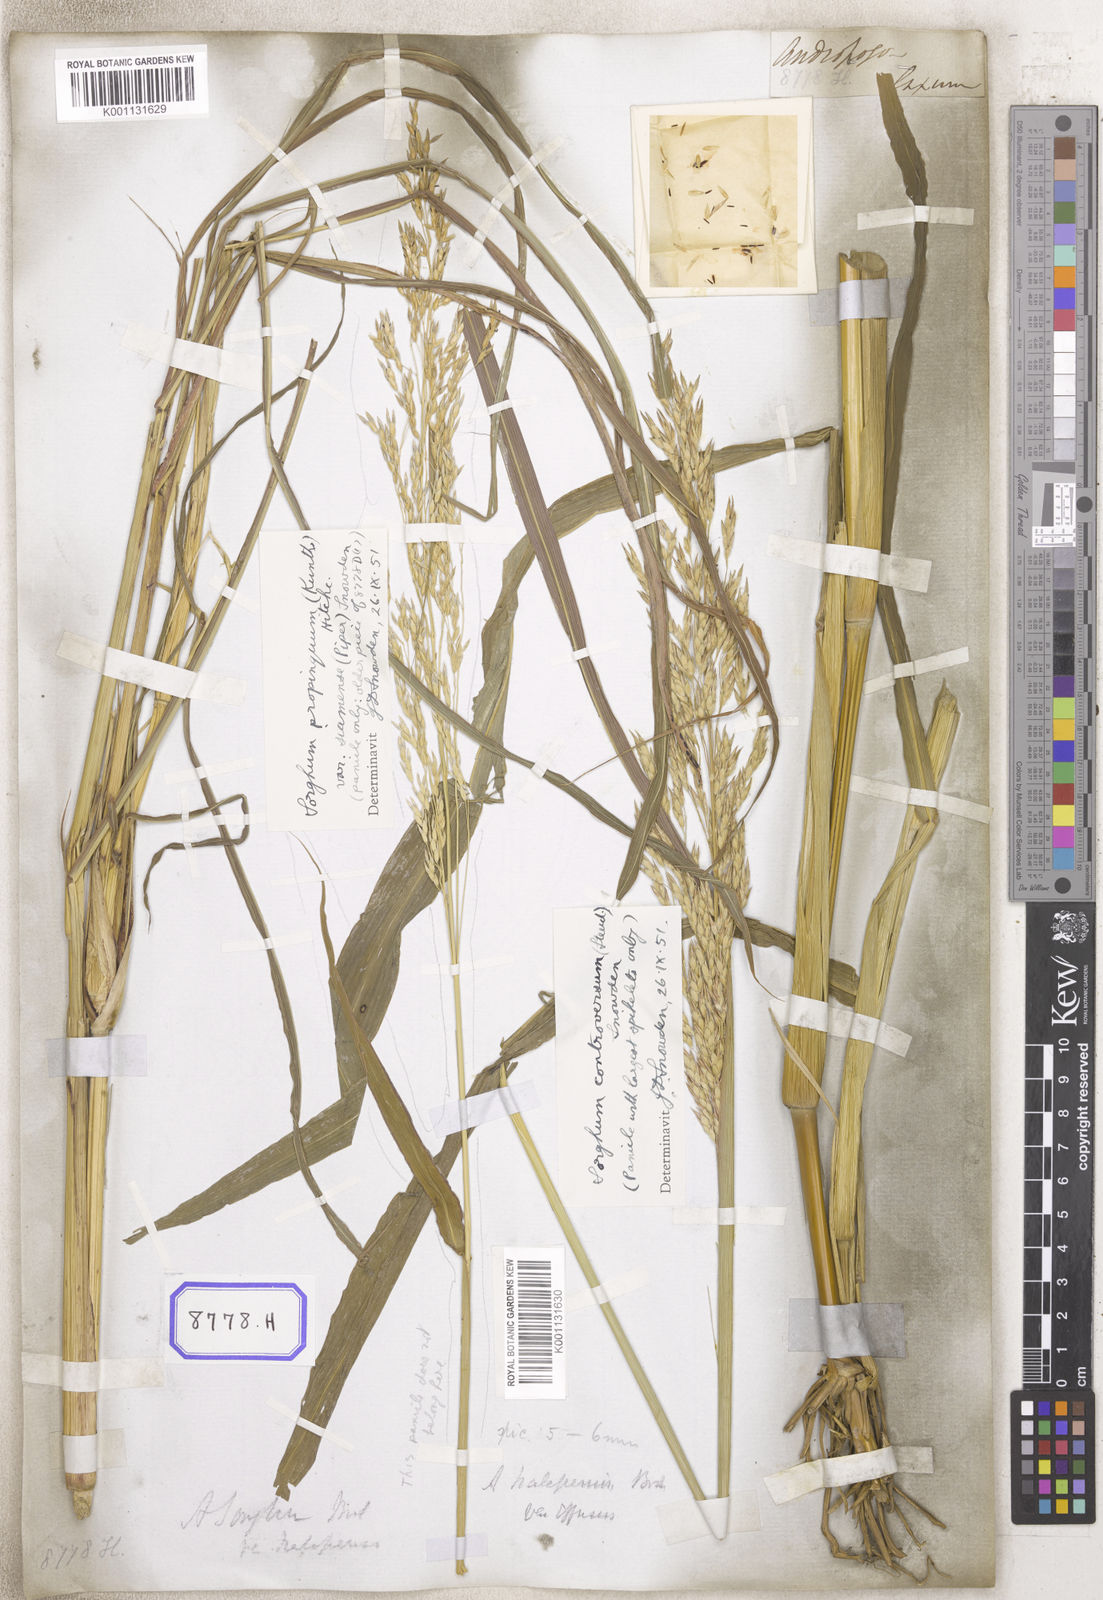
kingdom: Plantae
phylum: Tracheophyta
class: Liliopsida
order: Poales
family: Poaceae
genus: Sorghum
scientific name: Sorghum halepense
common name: Johnson-grass
